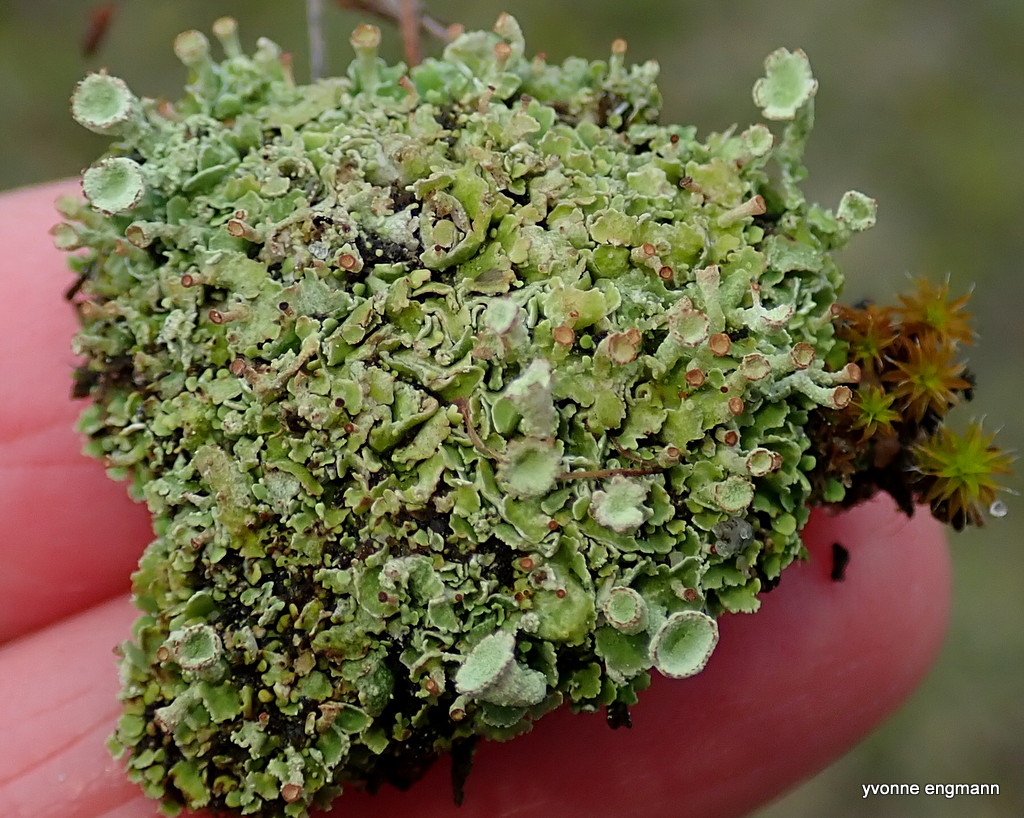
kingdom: Fungi
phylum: Ascomycota
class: Lecanoromycetes
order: Lecanorales
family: Cladoniaceae
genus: Cladonia
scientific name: Cladonia
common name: brungrøn bægerlav
